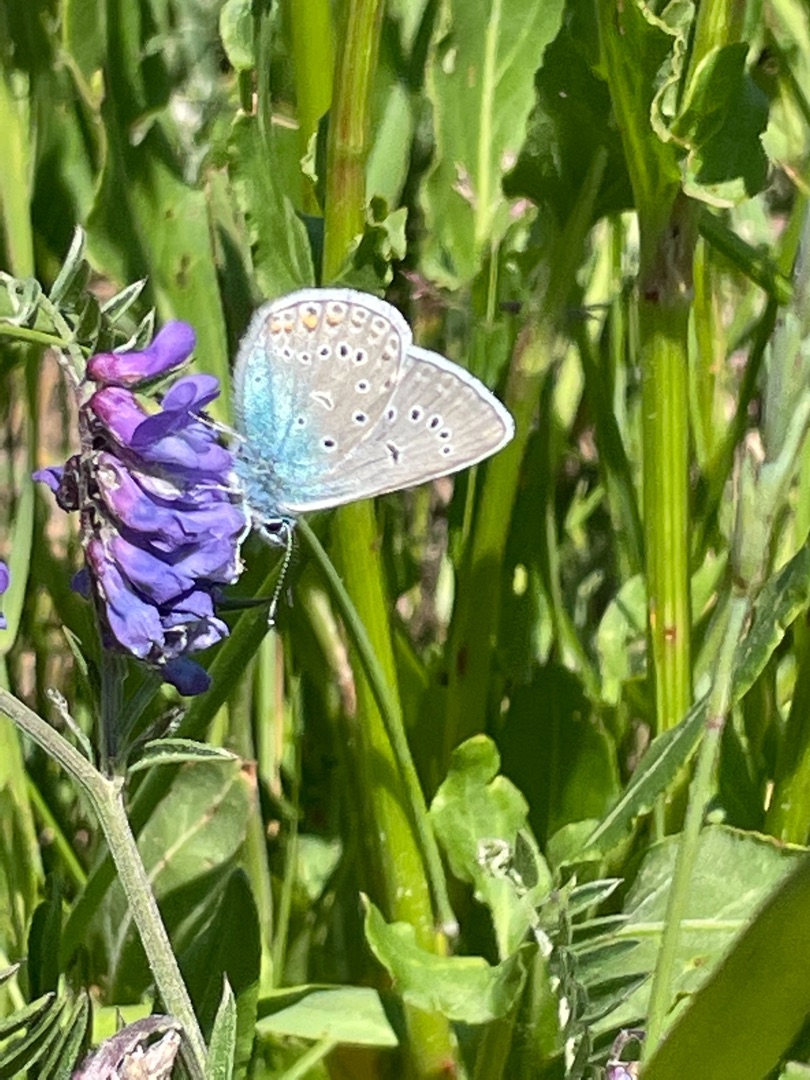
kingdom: Animalia
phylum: Arthropoda
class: Insecta
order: Lepidoptera
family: Lycaenidae
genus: Plebejus
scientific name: Plebejus amanda
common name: Isblåfugl
